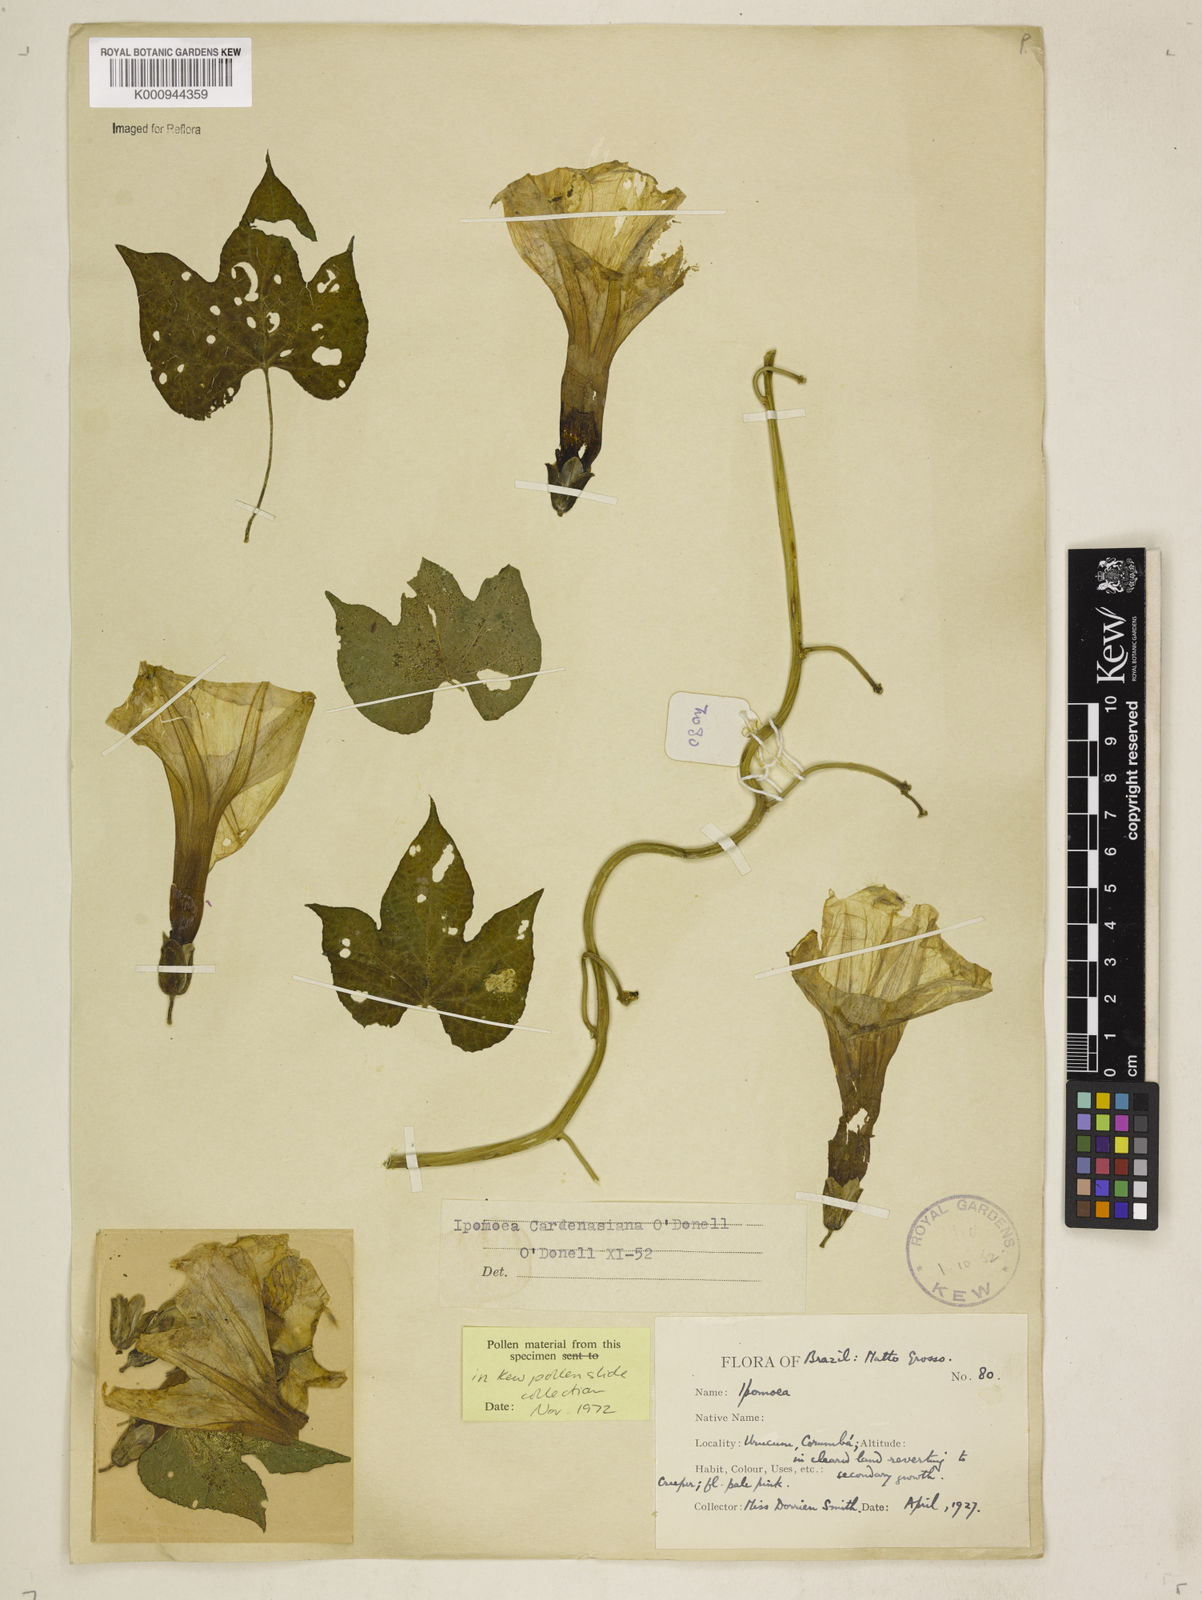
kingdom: Plantae
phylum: Tracheophyta
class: Magnoliopsida
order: Solanales
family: Convolvulaceae
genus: Ipomoea
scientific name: Ipomoea
